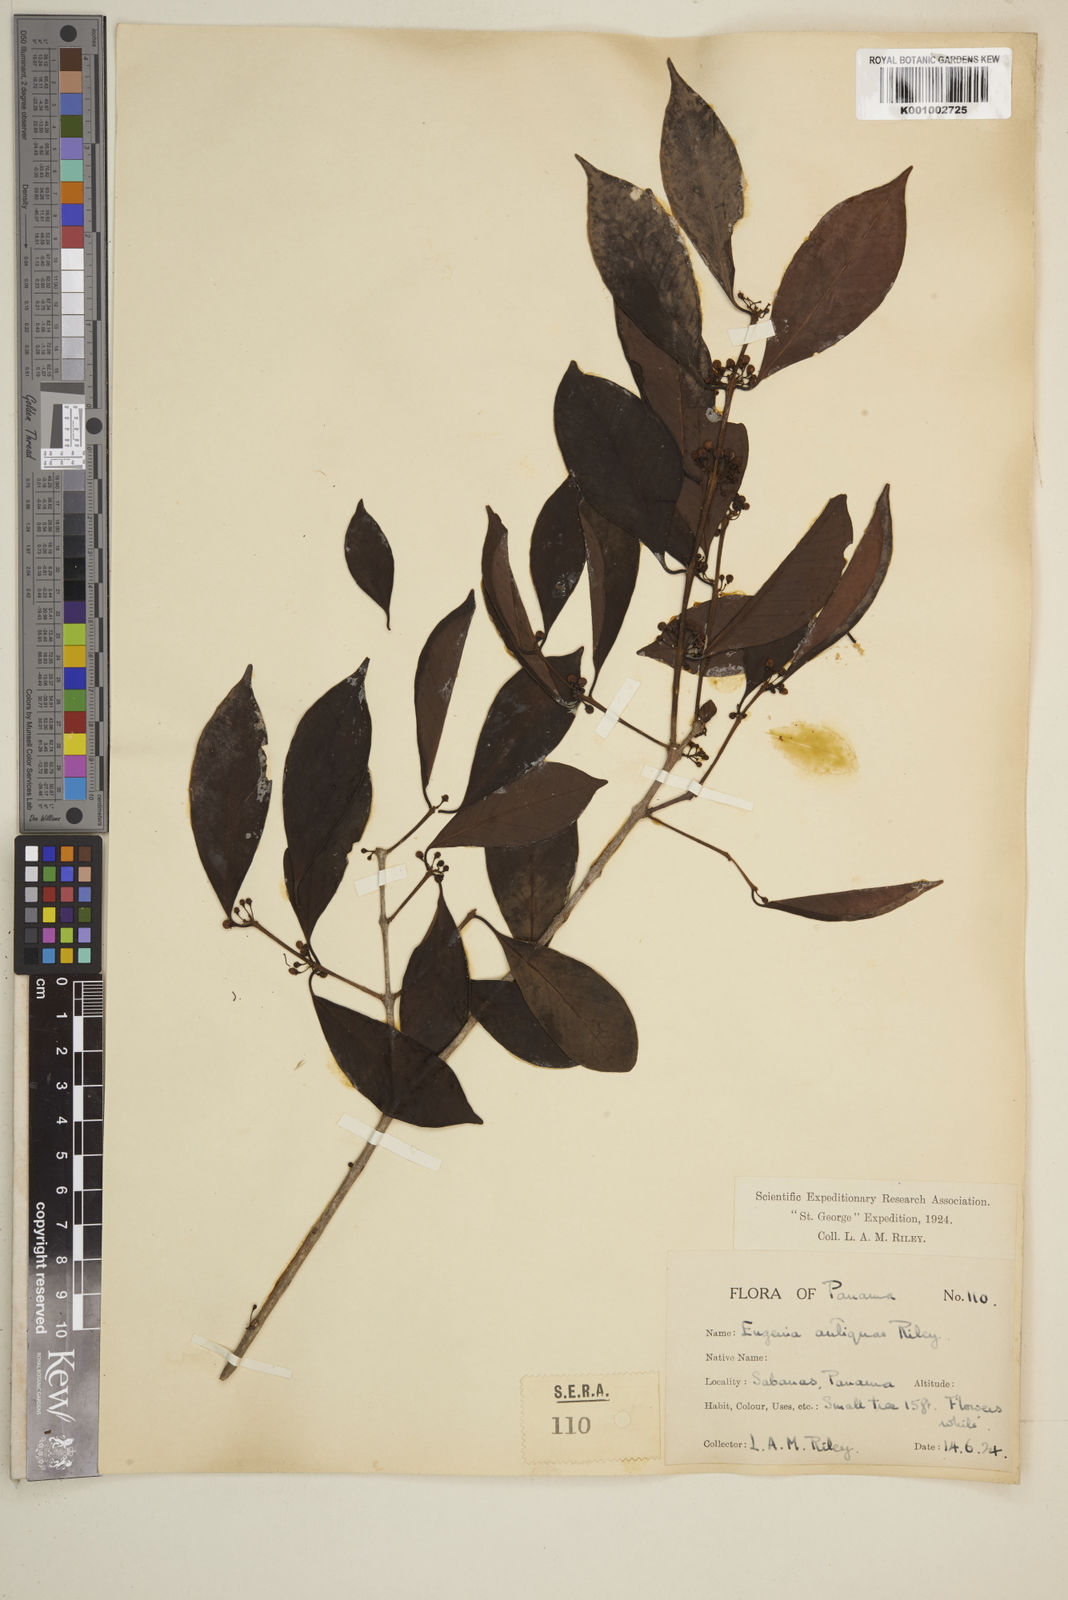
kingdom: Plantae
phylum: Tracheophyta
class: Magnoliopsida
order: Myrtales
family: Myrtaceae
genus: Eugenia
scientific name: Eugenia acapulcensis
